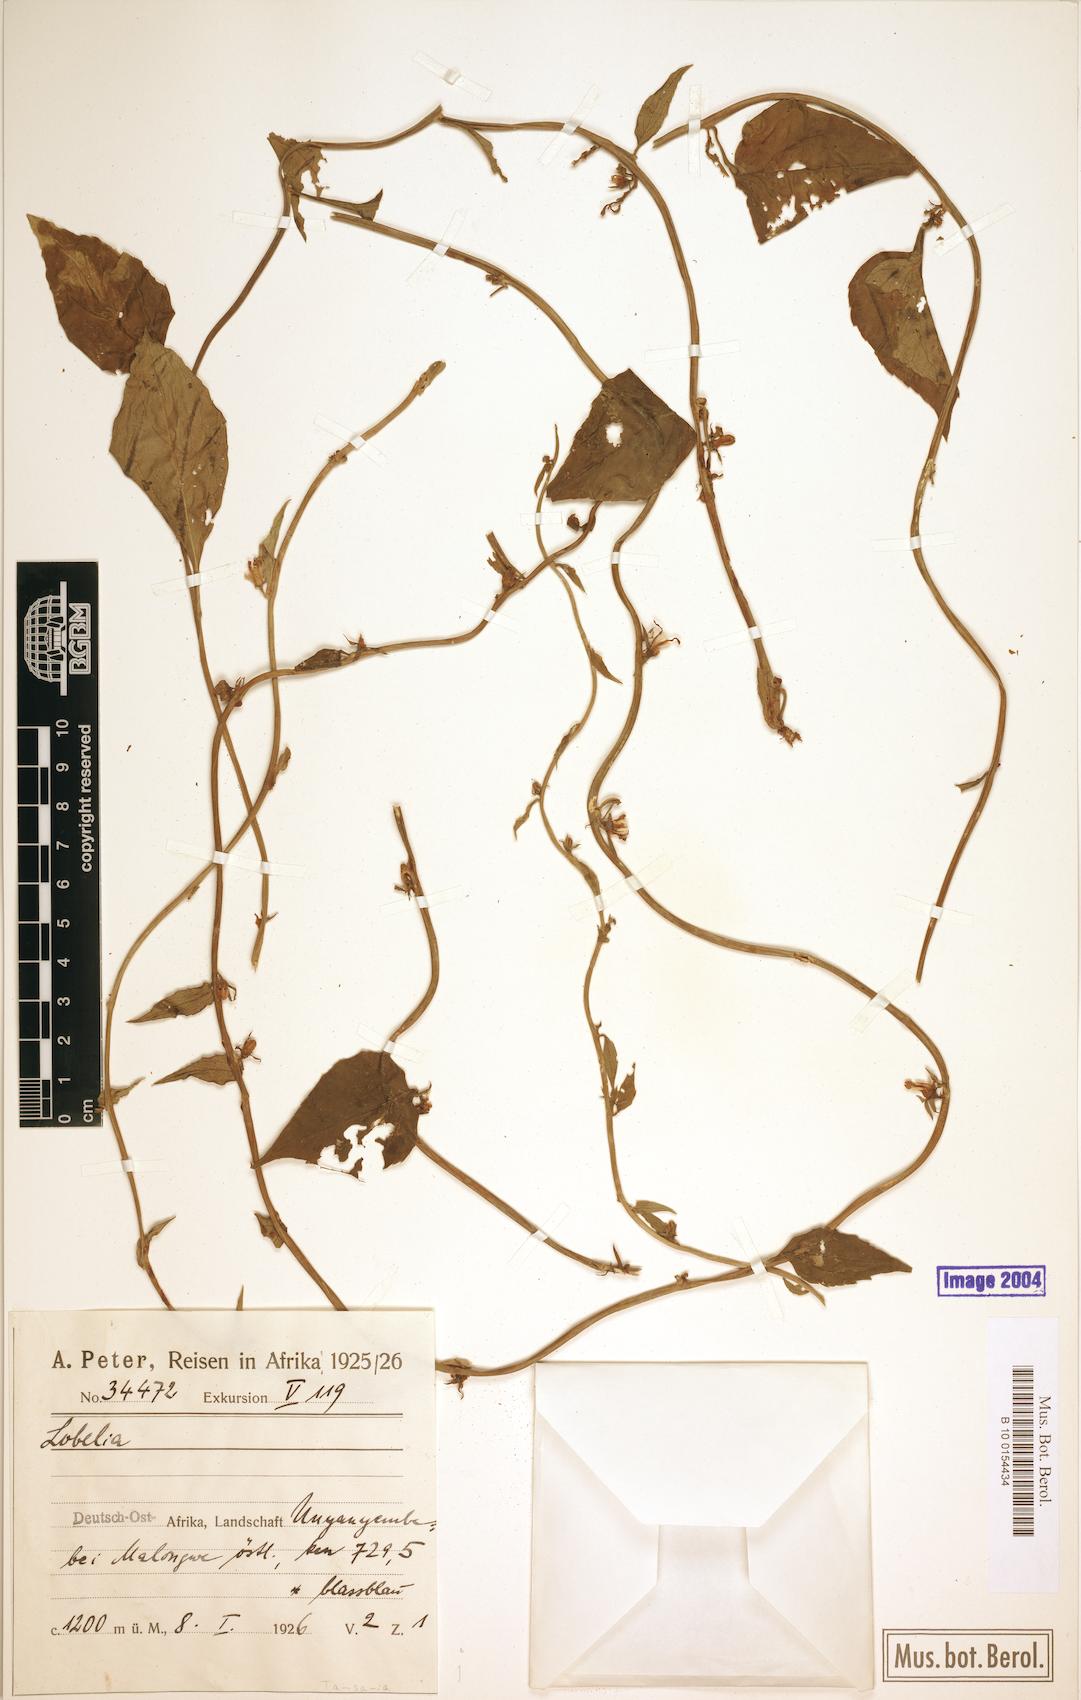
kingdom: Plantae
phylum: Tracheophyta
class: Magnoliopsida
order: Asterales
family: Campanulaceae
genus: Cyphia
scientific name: Cyphia lasiandra
